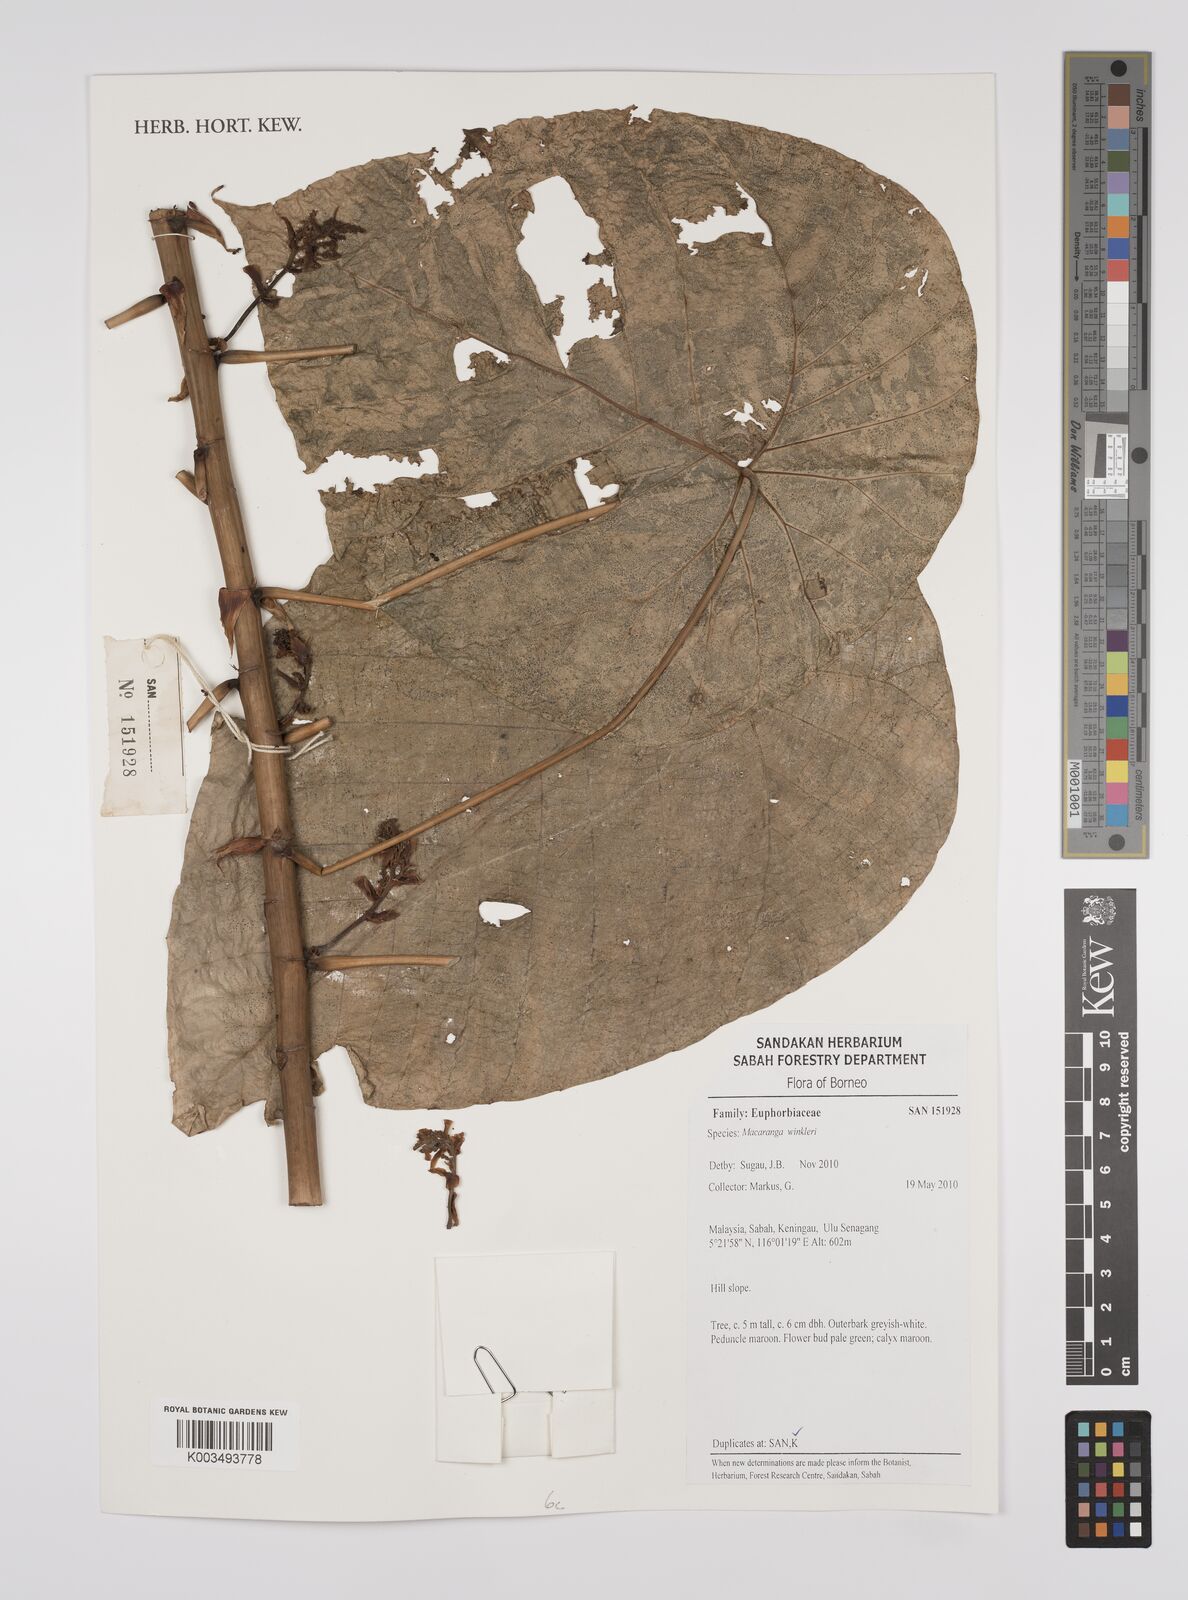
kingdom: Plantae
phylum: Tracheophyta
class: Magnoliopsida
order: Malpighiales
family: Euphorbiaceae
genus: Macaranga
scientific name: Macaranga winkleri
